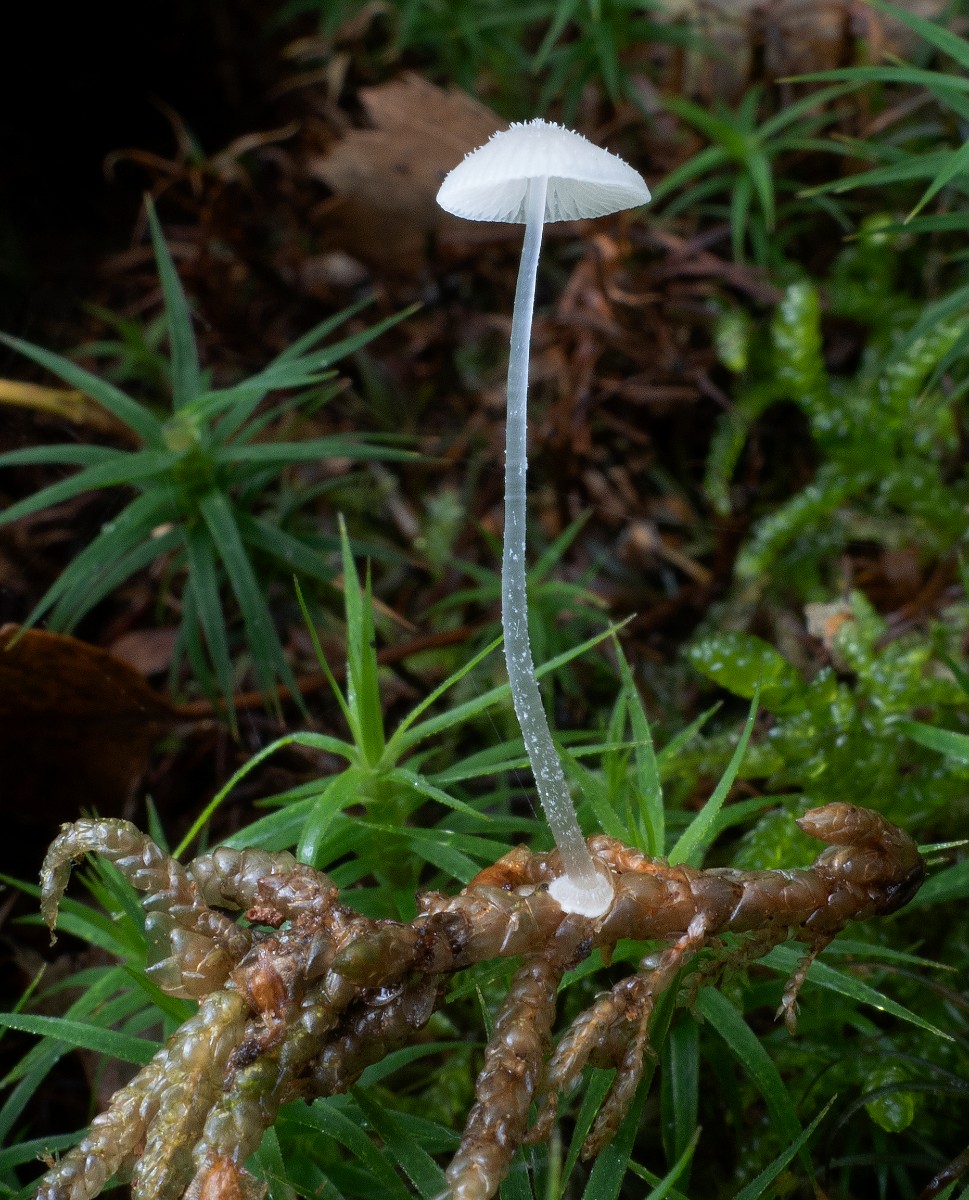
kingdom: Fungi
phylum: Basidiomycota
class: Agaricomycetes
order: Agaricales
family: Mycenaceae
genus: Mycena
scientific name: Mycena stylobates
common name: fureskivet huesvamp
